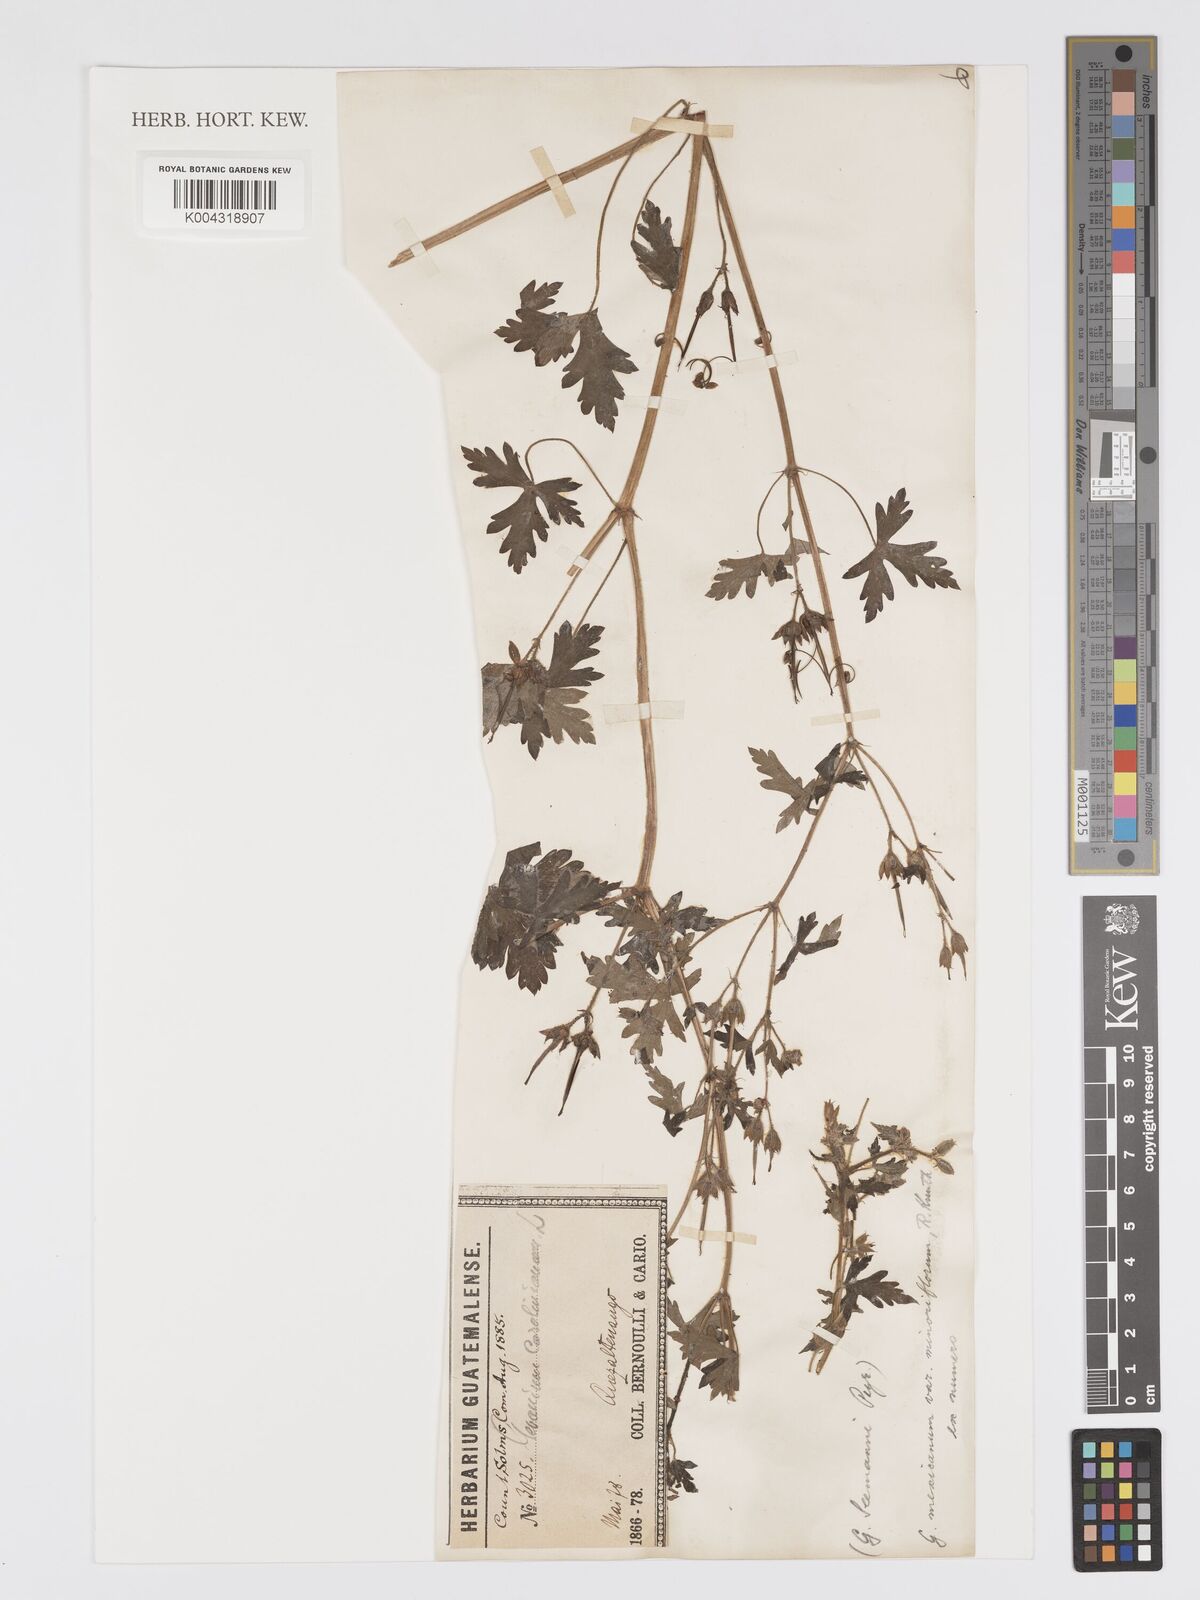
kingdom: Plantae
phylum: Tracheophyta
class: Magnoliopsida
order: Geraniales
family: Geraniaceae
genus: Geranium
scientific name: Geranium mexicanum
